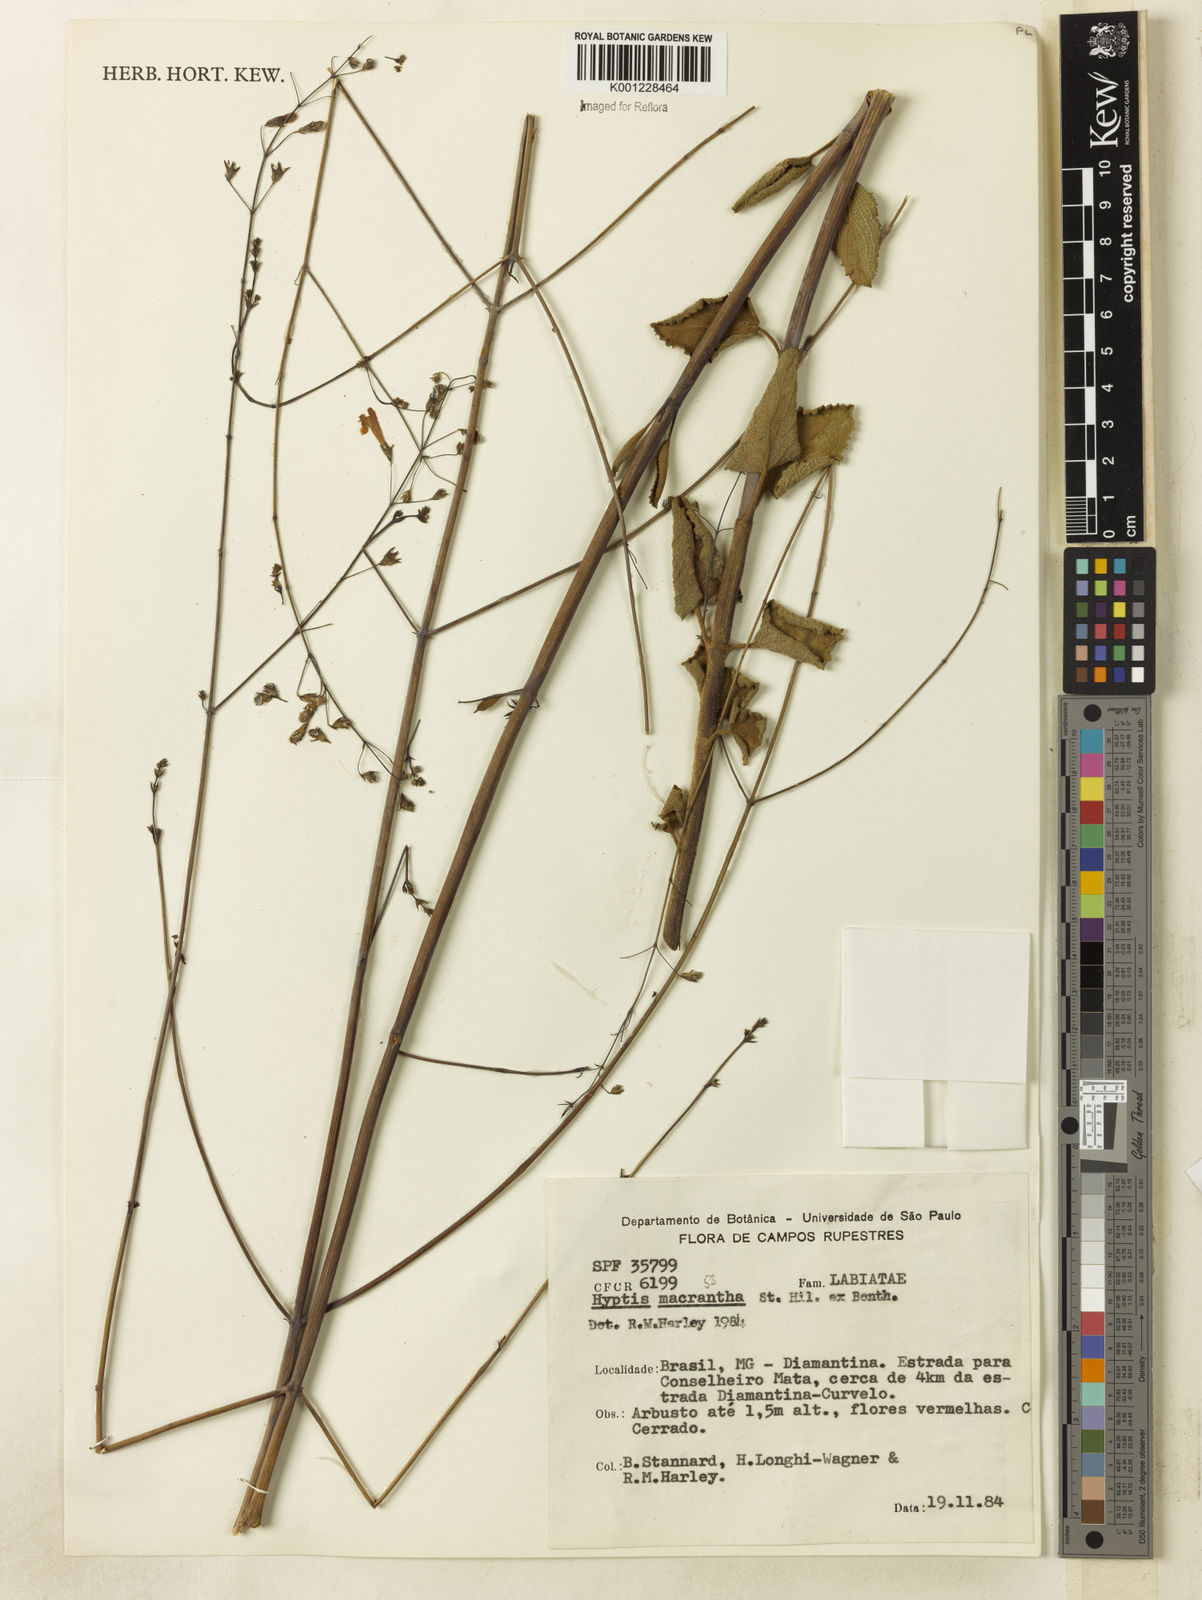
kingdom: Plantae
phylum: Tracheophyta
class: Magnoliopsida
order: Lamiales
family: Lamiaceae
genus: Hypenia
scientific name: Hypenia reticulata
